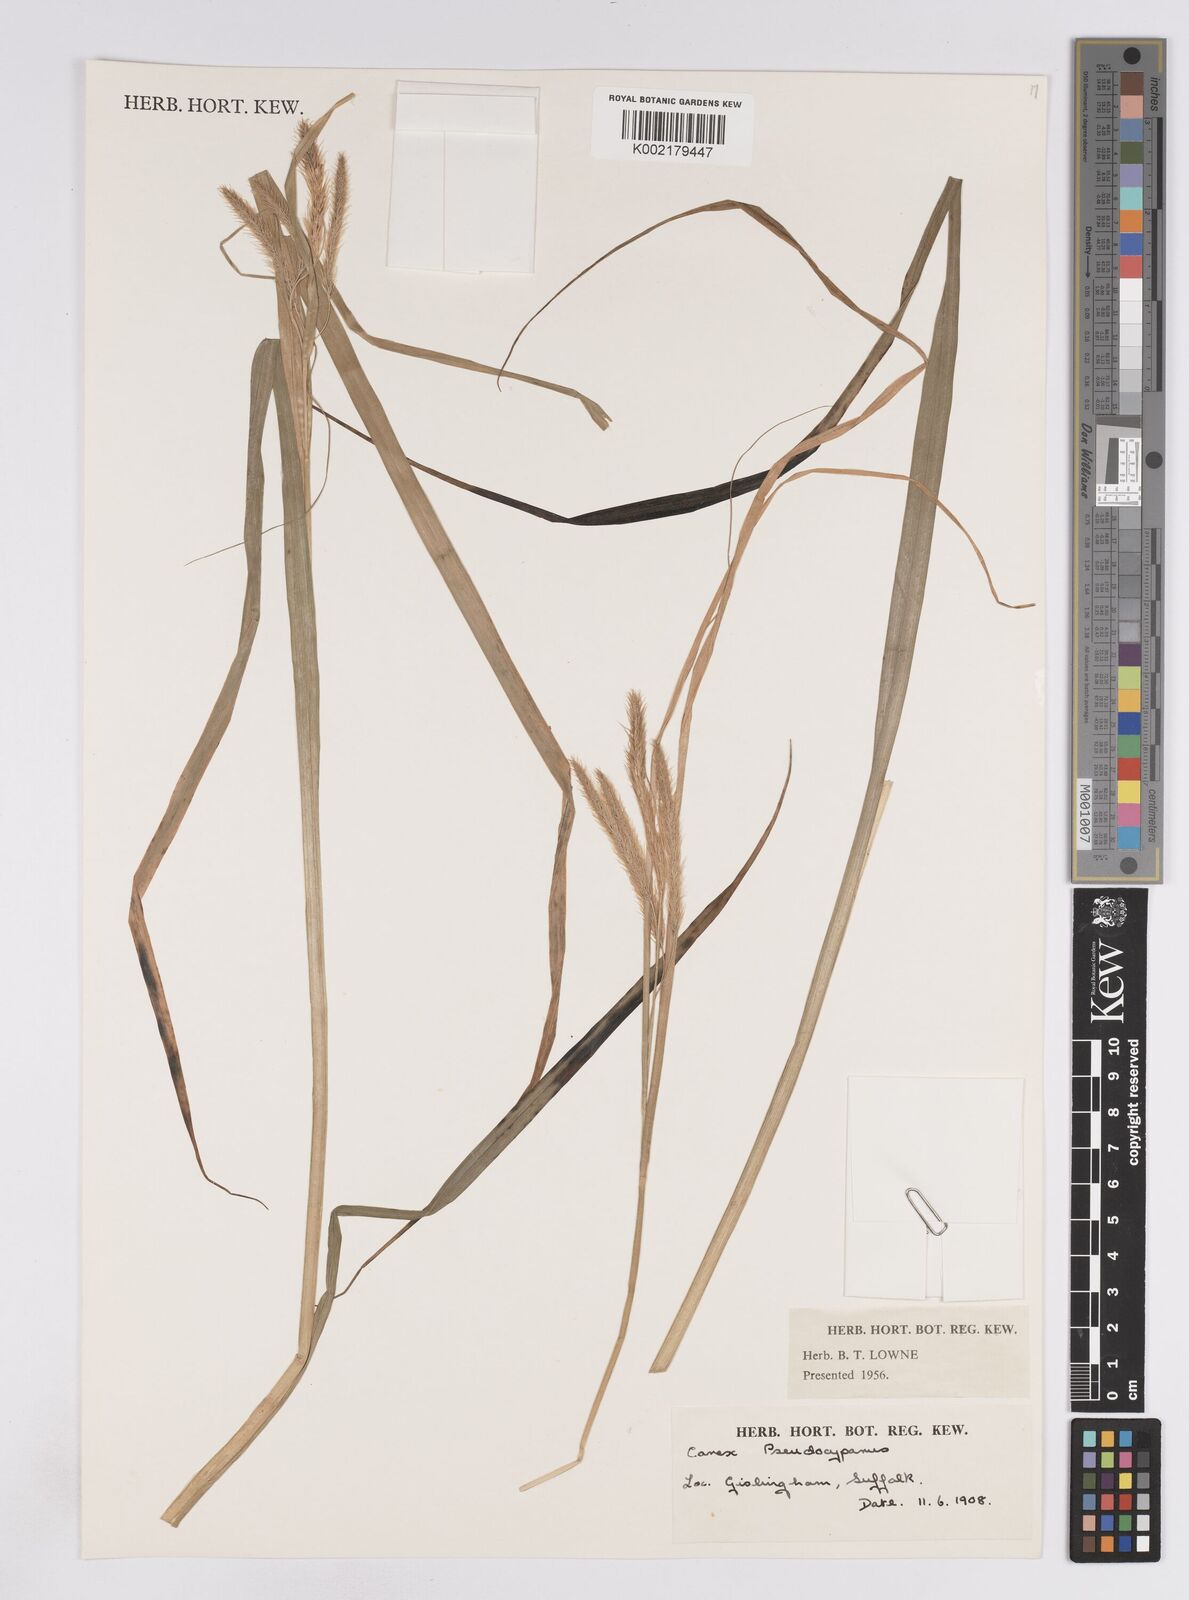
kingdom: Plantae
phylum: Tracheophyta
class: Liliopsida
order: Poales
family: Cyperaceae
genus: Carex
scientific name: Carex pseudocyperus
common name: Cyperus sedge
